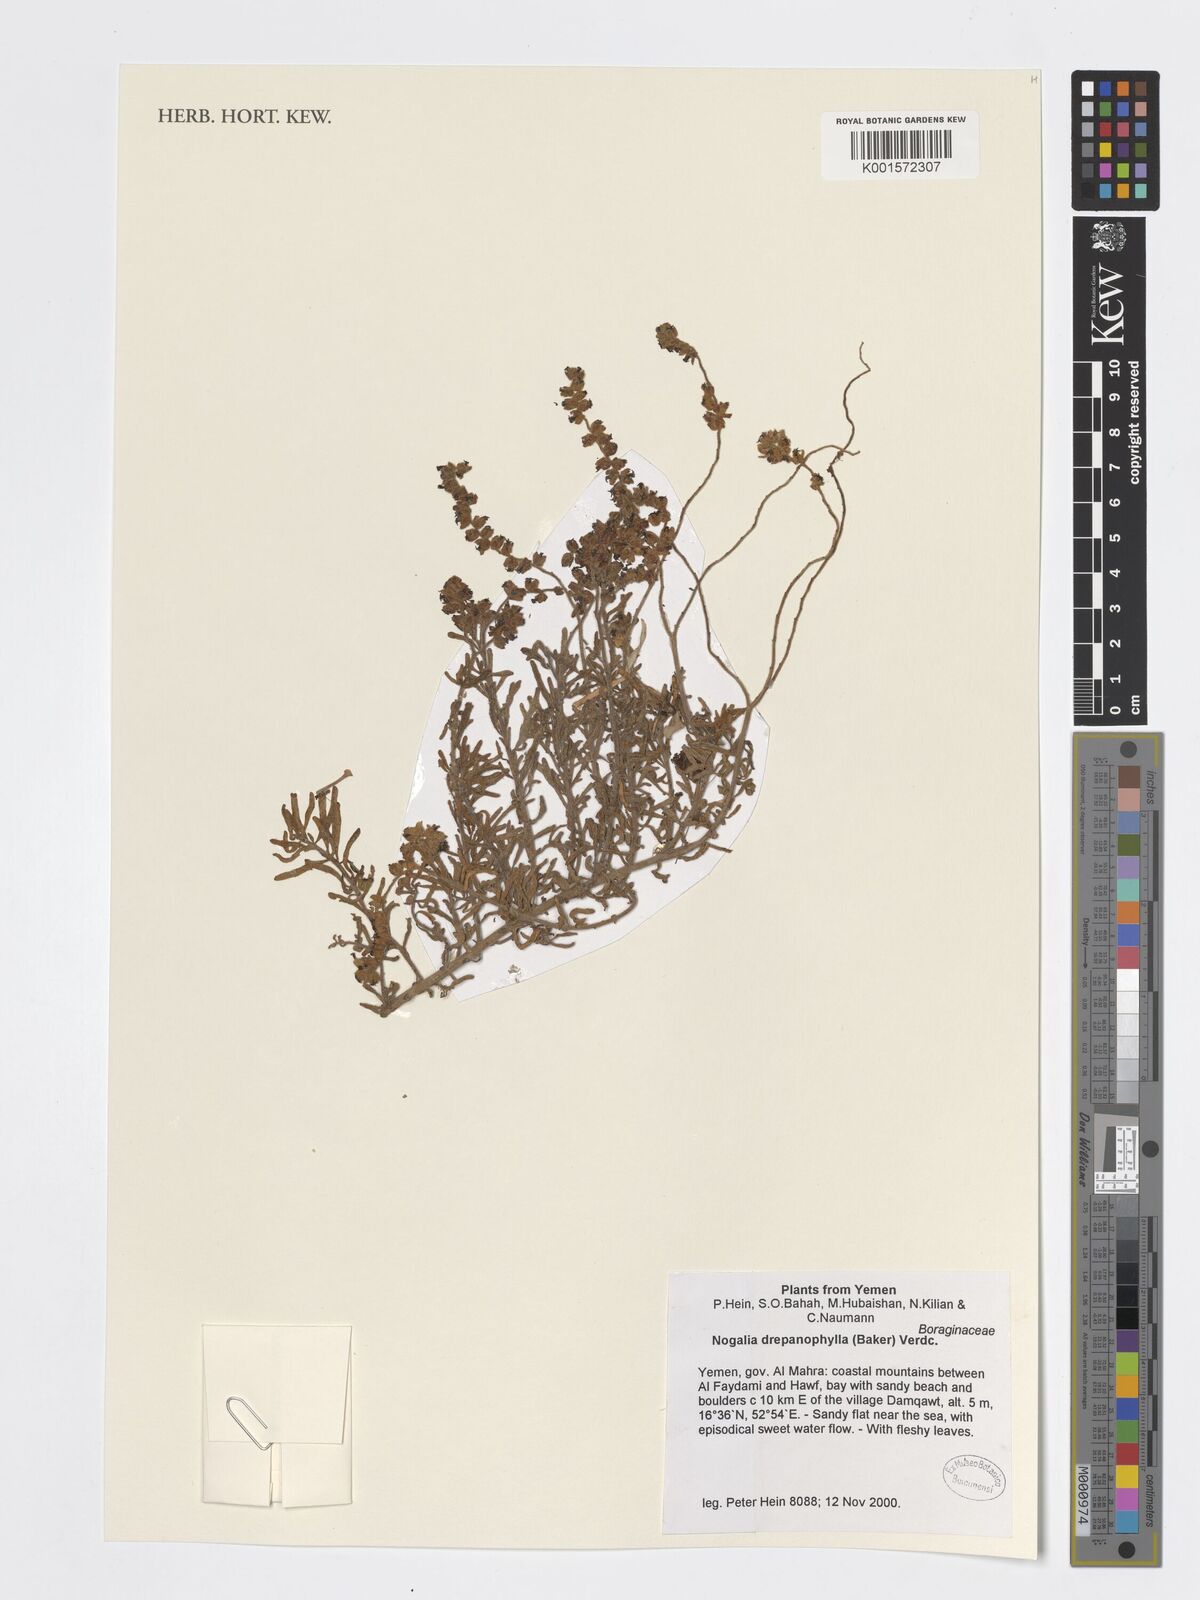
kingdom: Plantae
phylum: Tracheophyta
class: Magnoliopsida
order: Boraginales
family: Heliotropiaceae
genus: Heliotropium
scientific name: Heliotropium drepanophyllum
